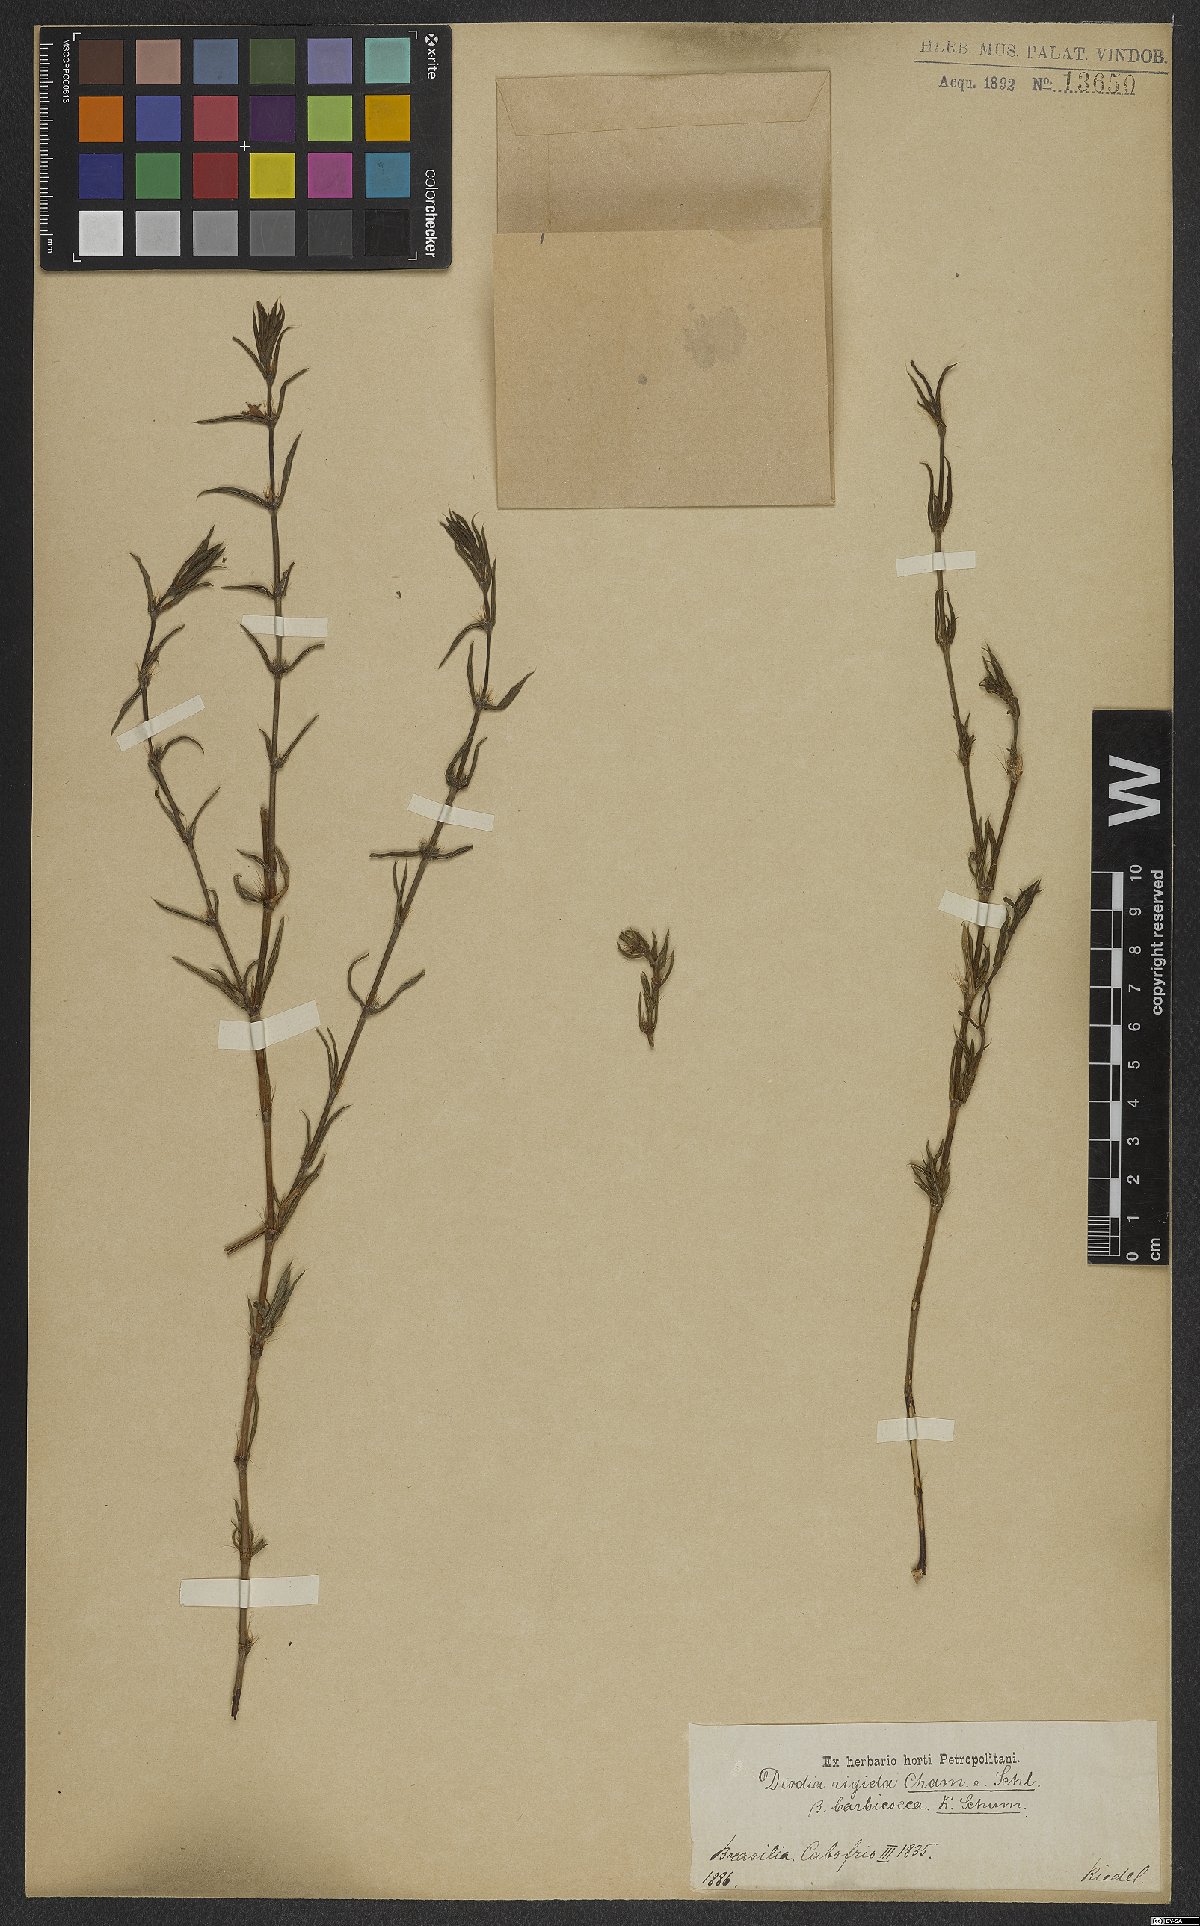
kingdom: Plantae
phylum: Tracheophyta
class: Magnoliopsida
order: Gentianales
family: Rubiaceae
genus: Hexasepalum
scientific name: Hexasepalum apiculatum
